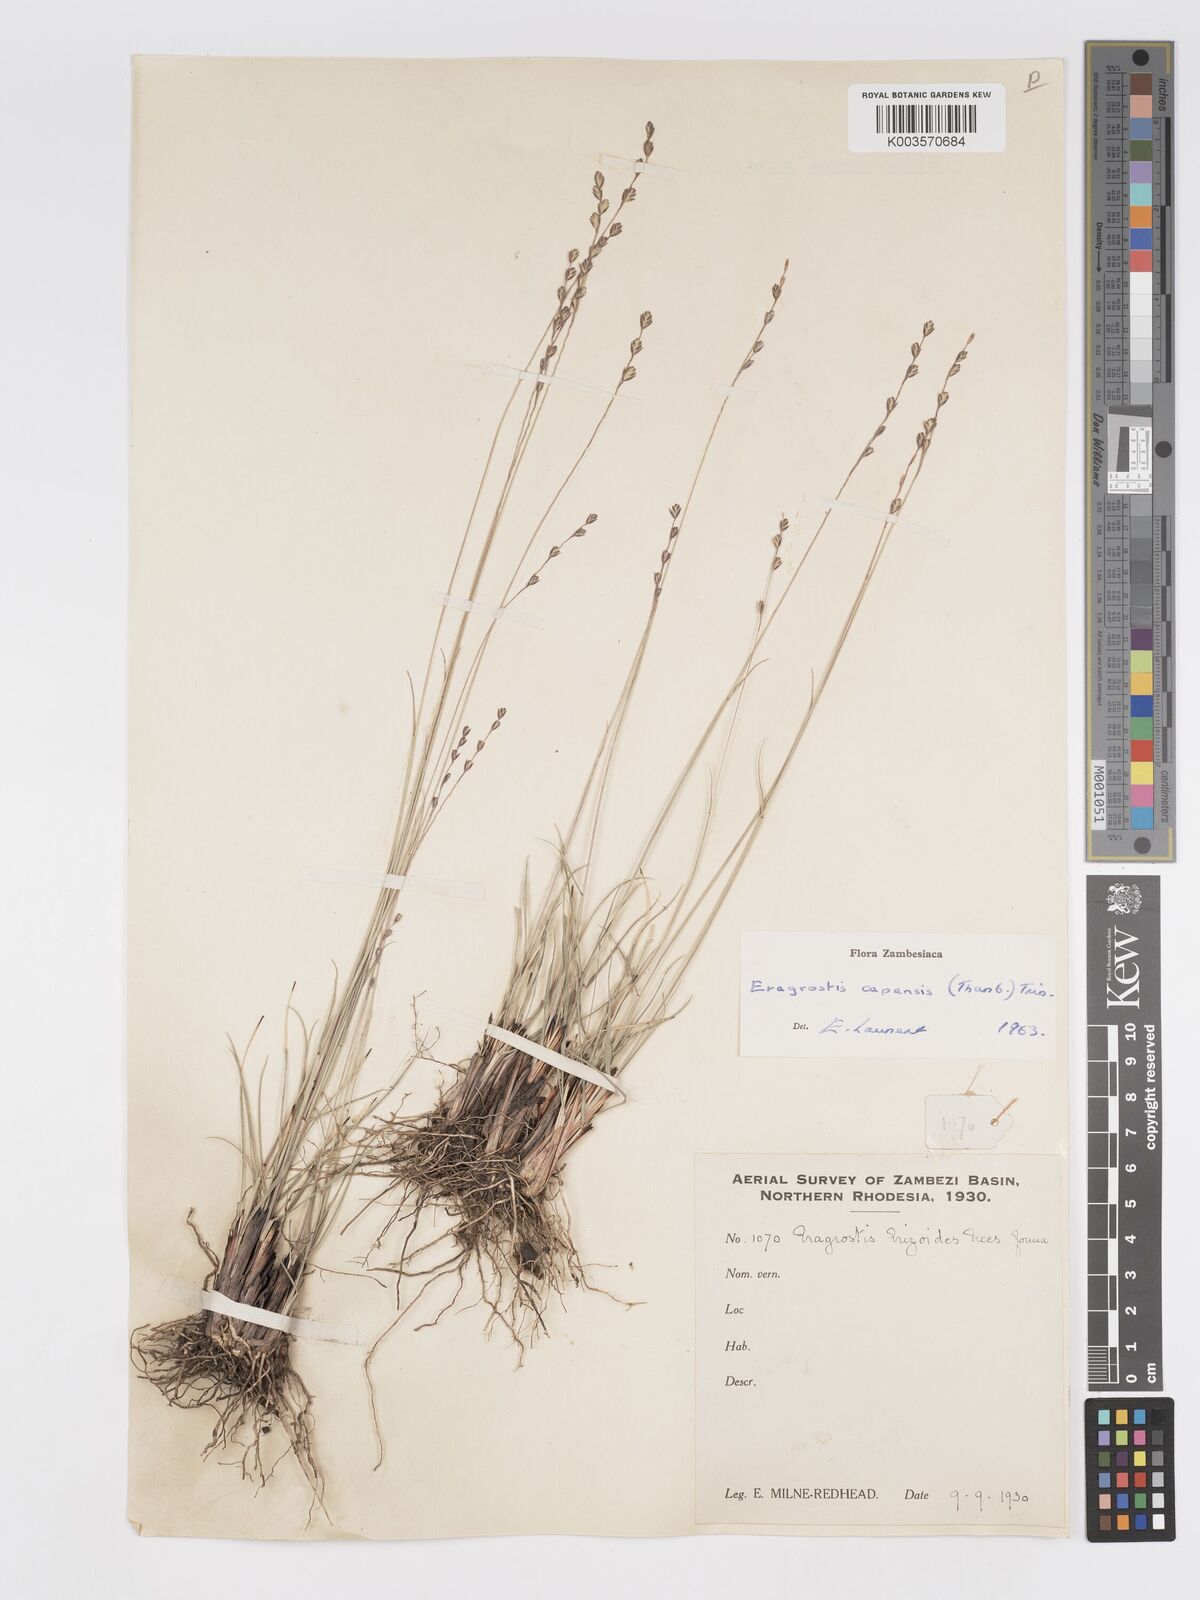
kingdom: Plantae
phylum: Tracheophyta
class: Liliopsida
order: Poales
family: Poaceae
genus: Eragrostis
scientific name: Eragrostis capensis
